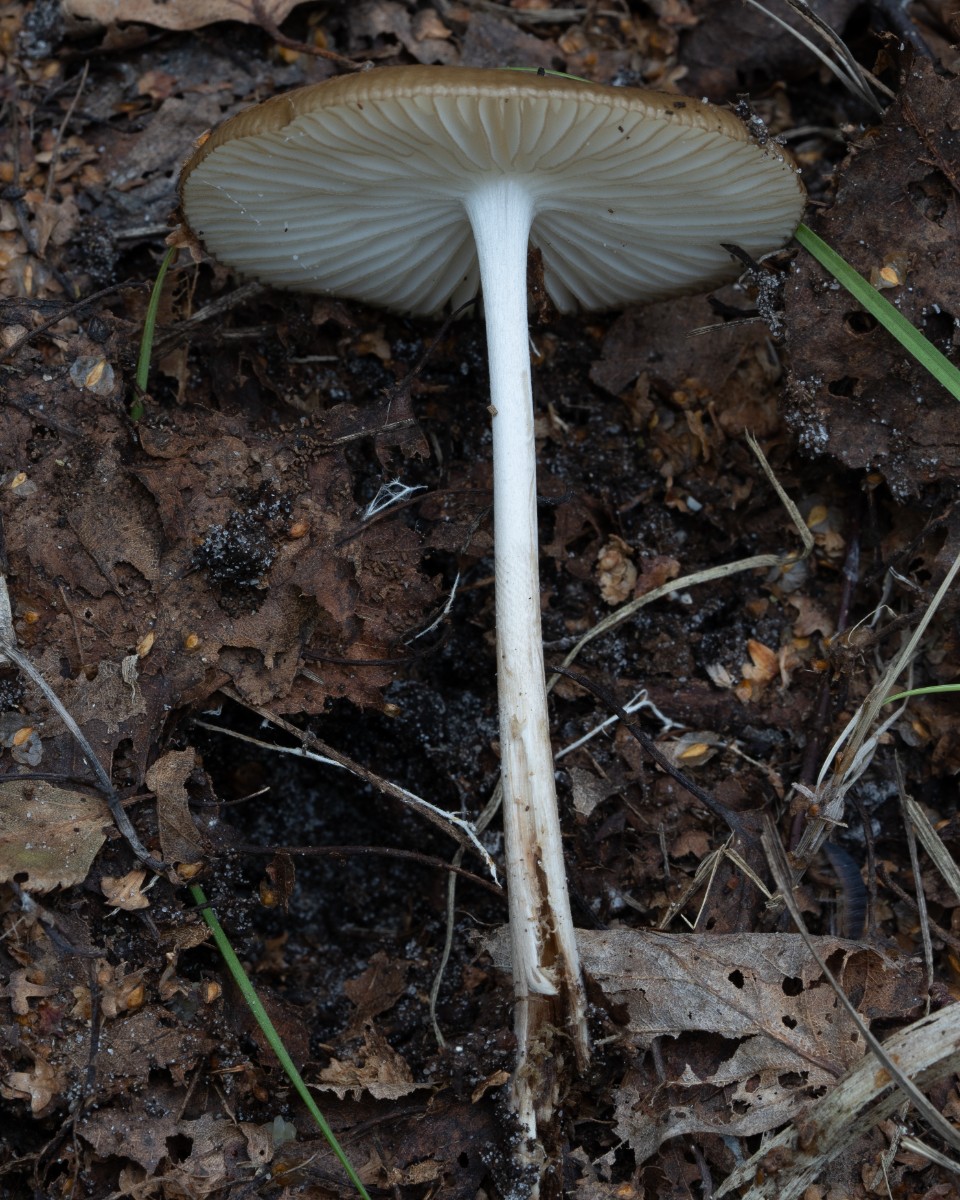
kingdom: Fungi
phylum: Basidiomycota
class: Agaricomycetes
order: Agaricales
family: Physalacriaceae
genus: Hymenopellis
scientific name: Hymenopellis radicata
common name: almindelig pælerodshat
